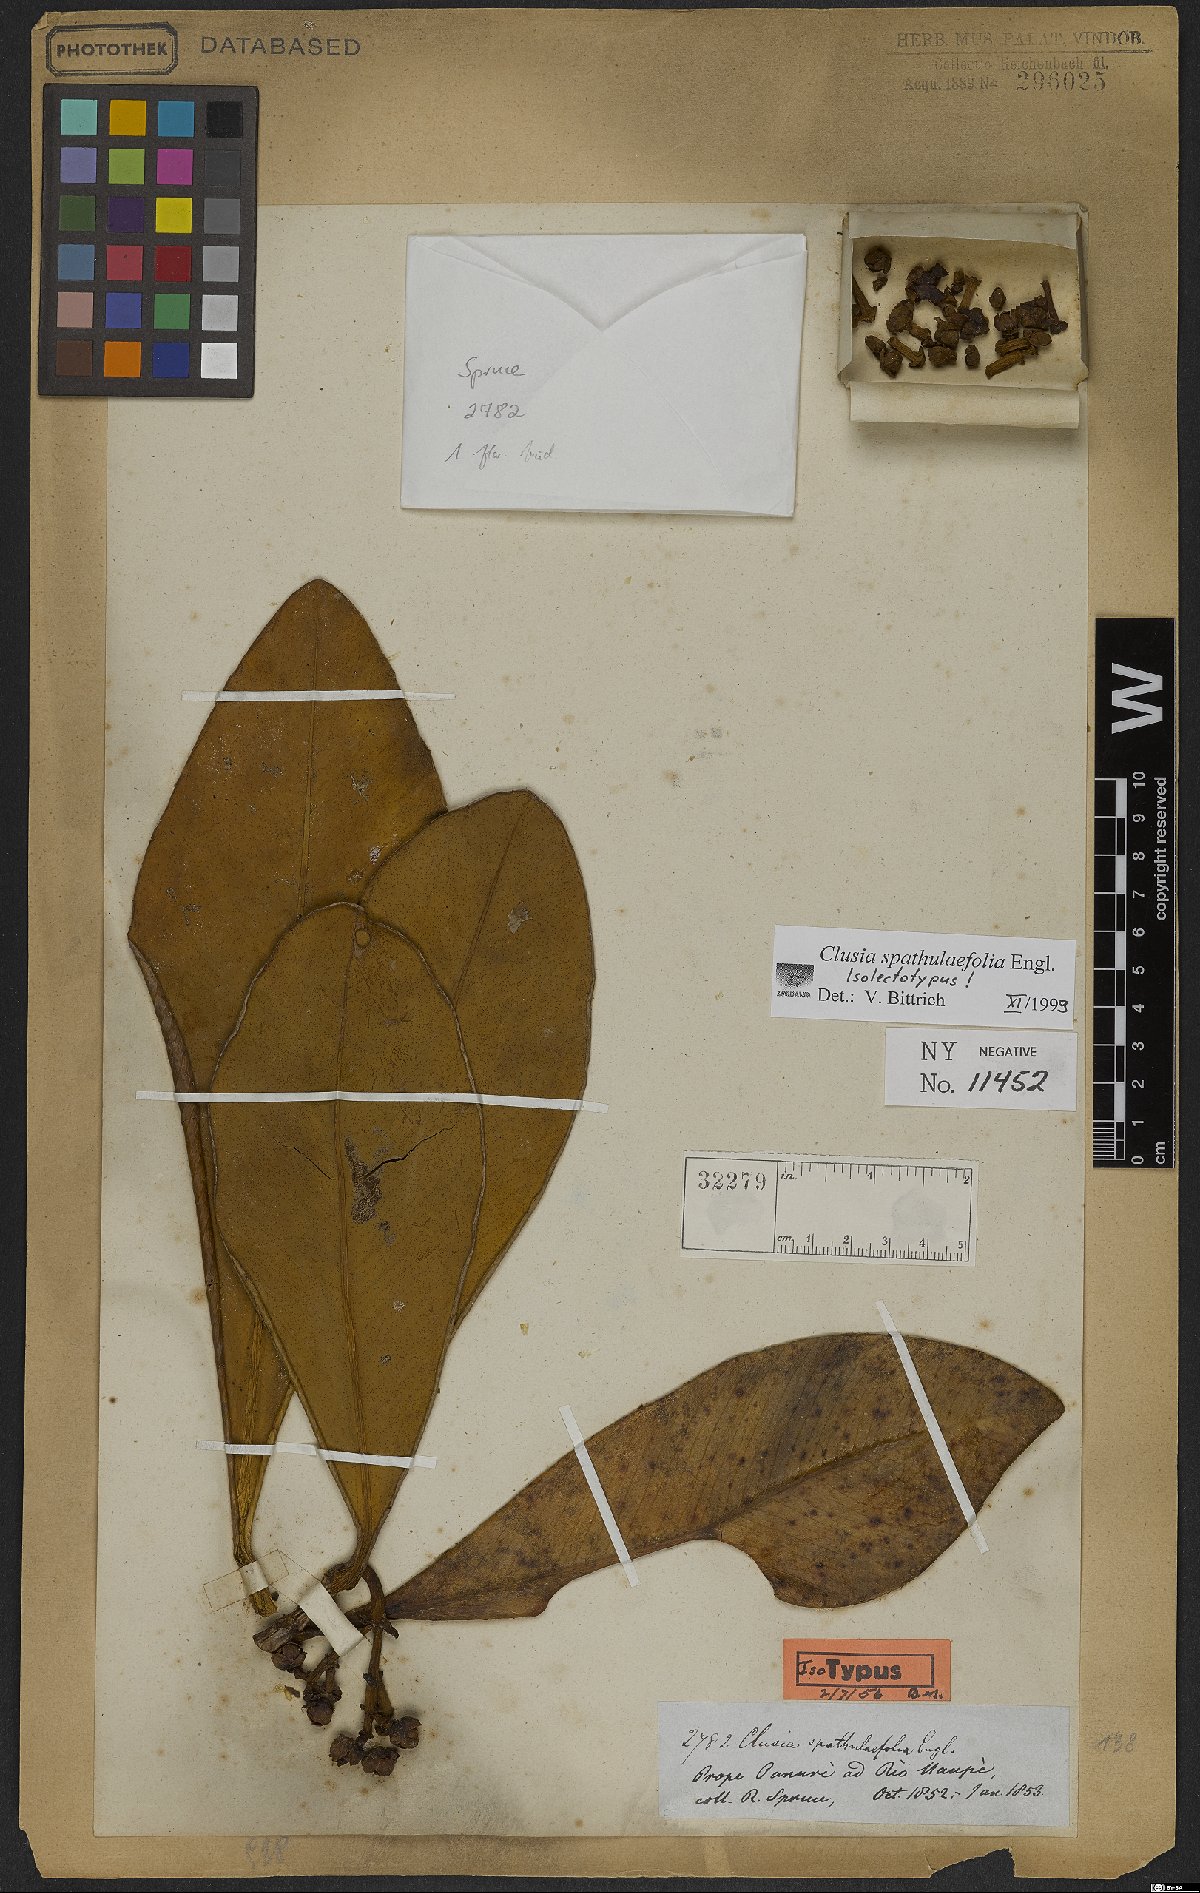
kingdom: Plantae
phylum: Tracheophyta
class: Magnoliopsida
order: Malpighiales
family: Clusiaceae
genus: Clusia
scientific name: Clusia spathulifolia
